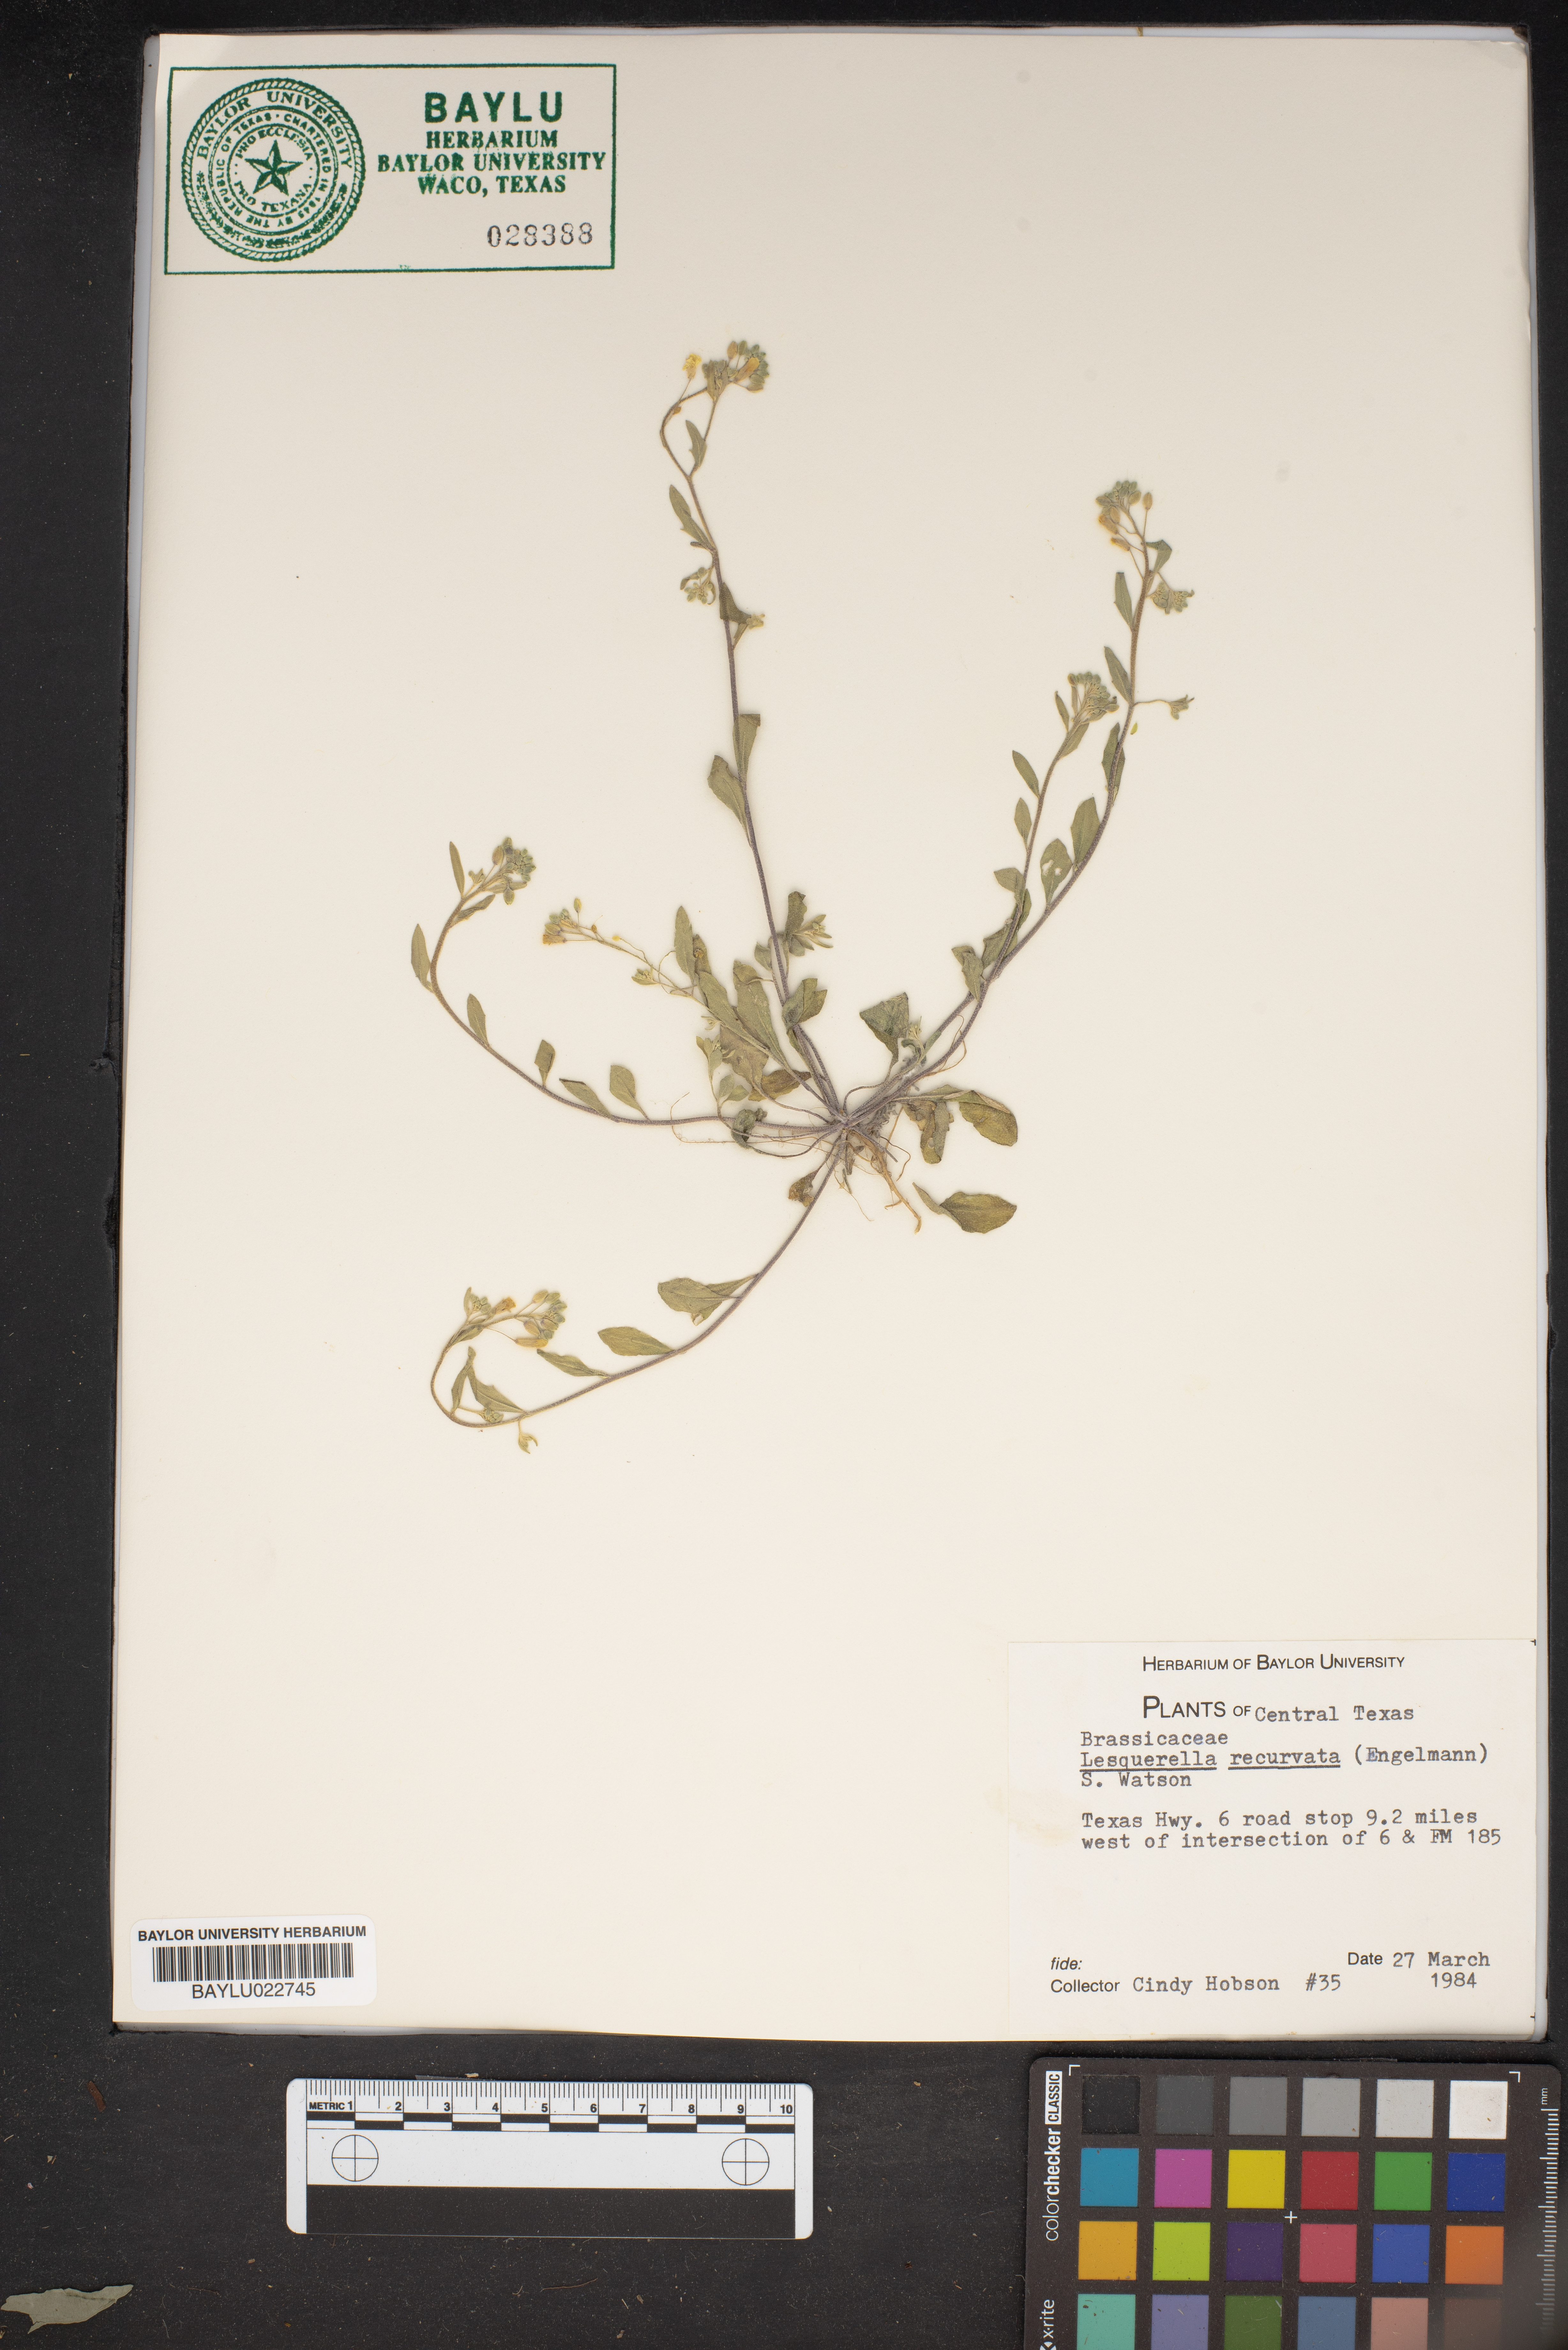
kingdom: Plantae
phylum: Tracheophyta
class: Magnoliopsida
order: Brassicales
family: Brassicaceae
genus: Physaria
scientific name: Physaria recurvata
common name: Gaslight bladderpod
